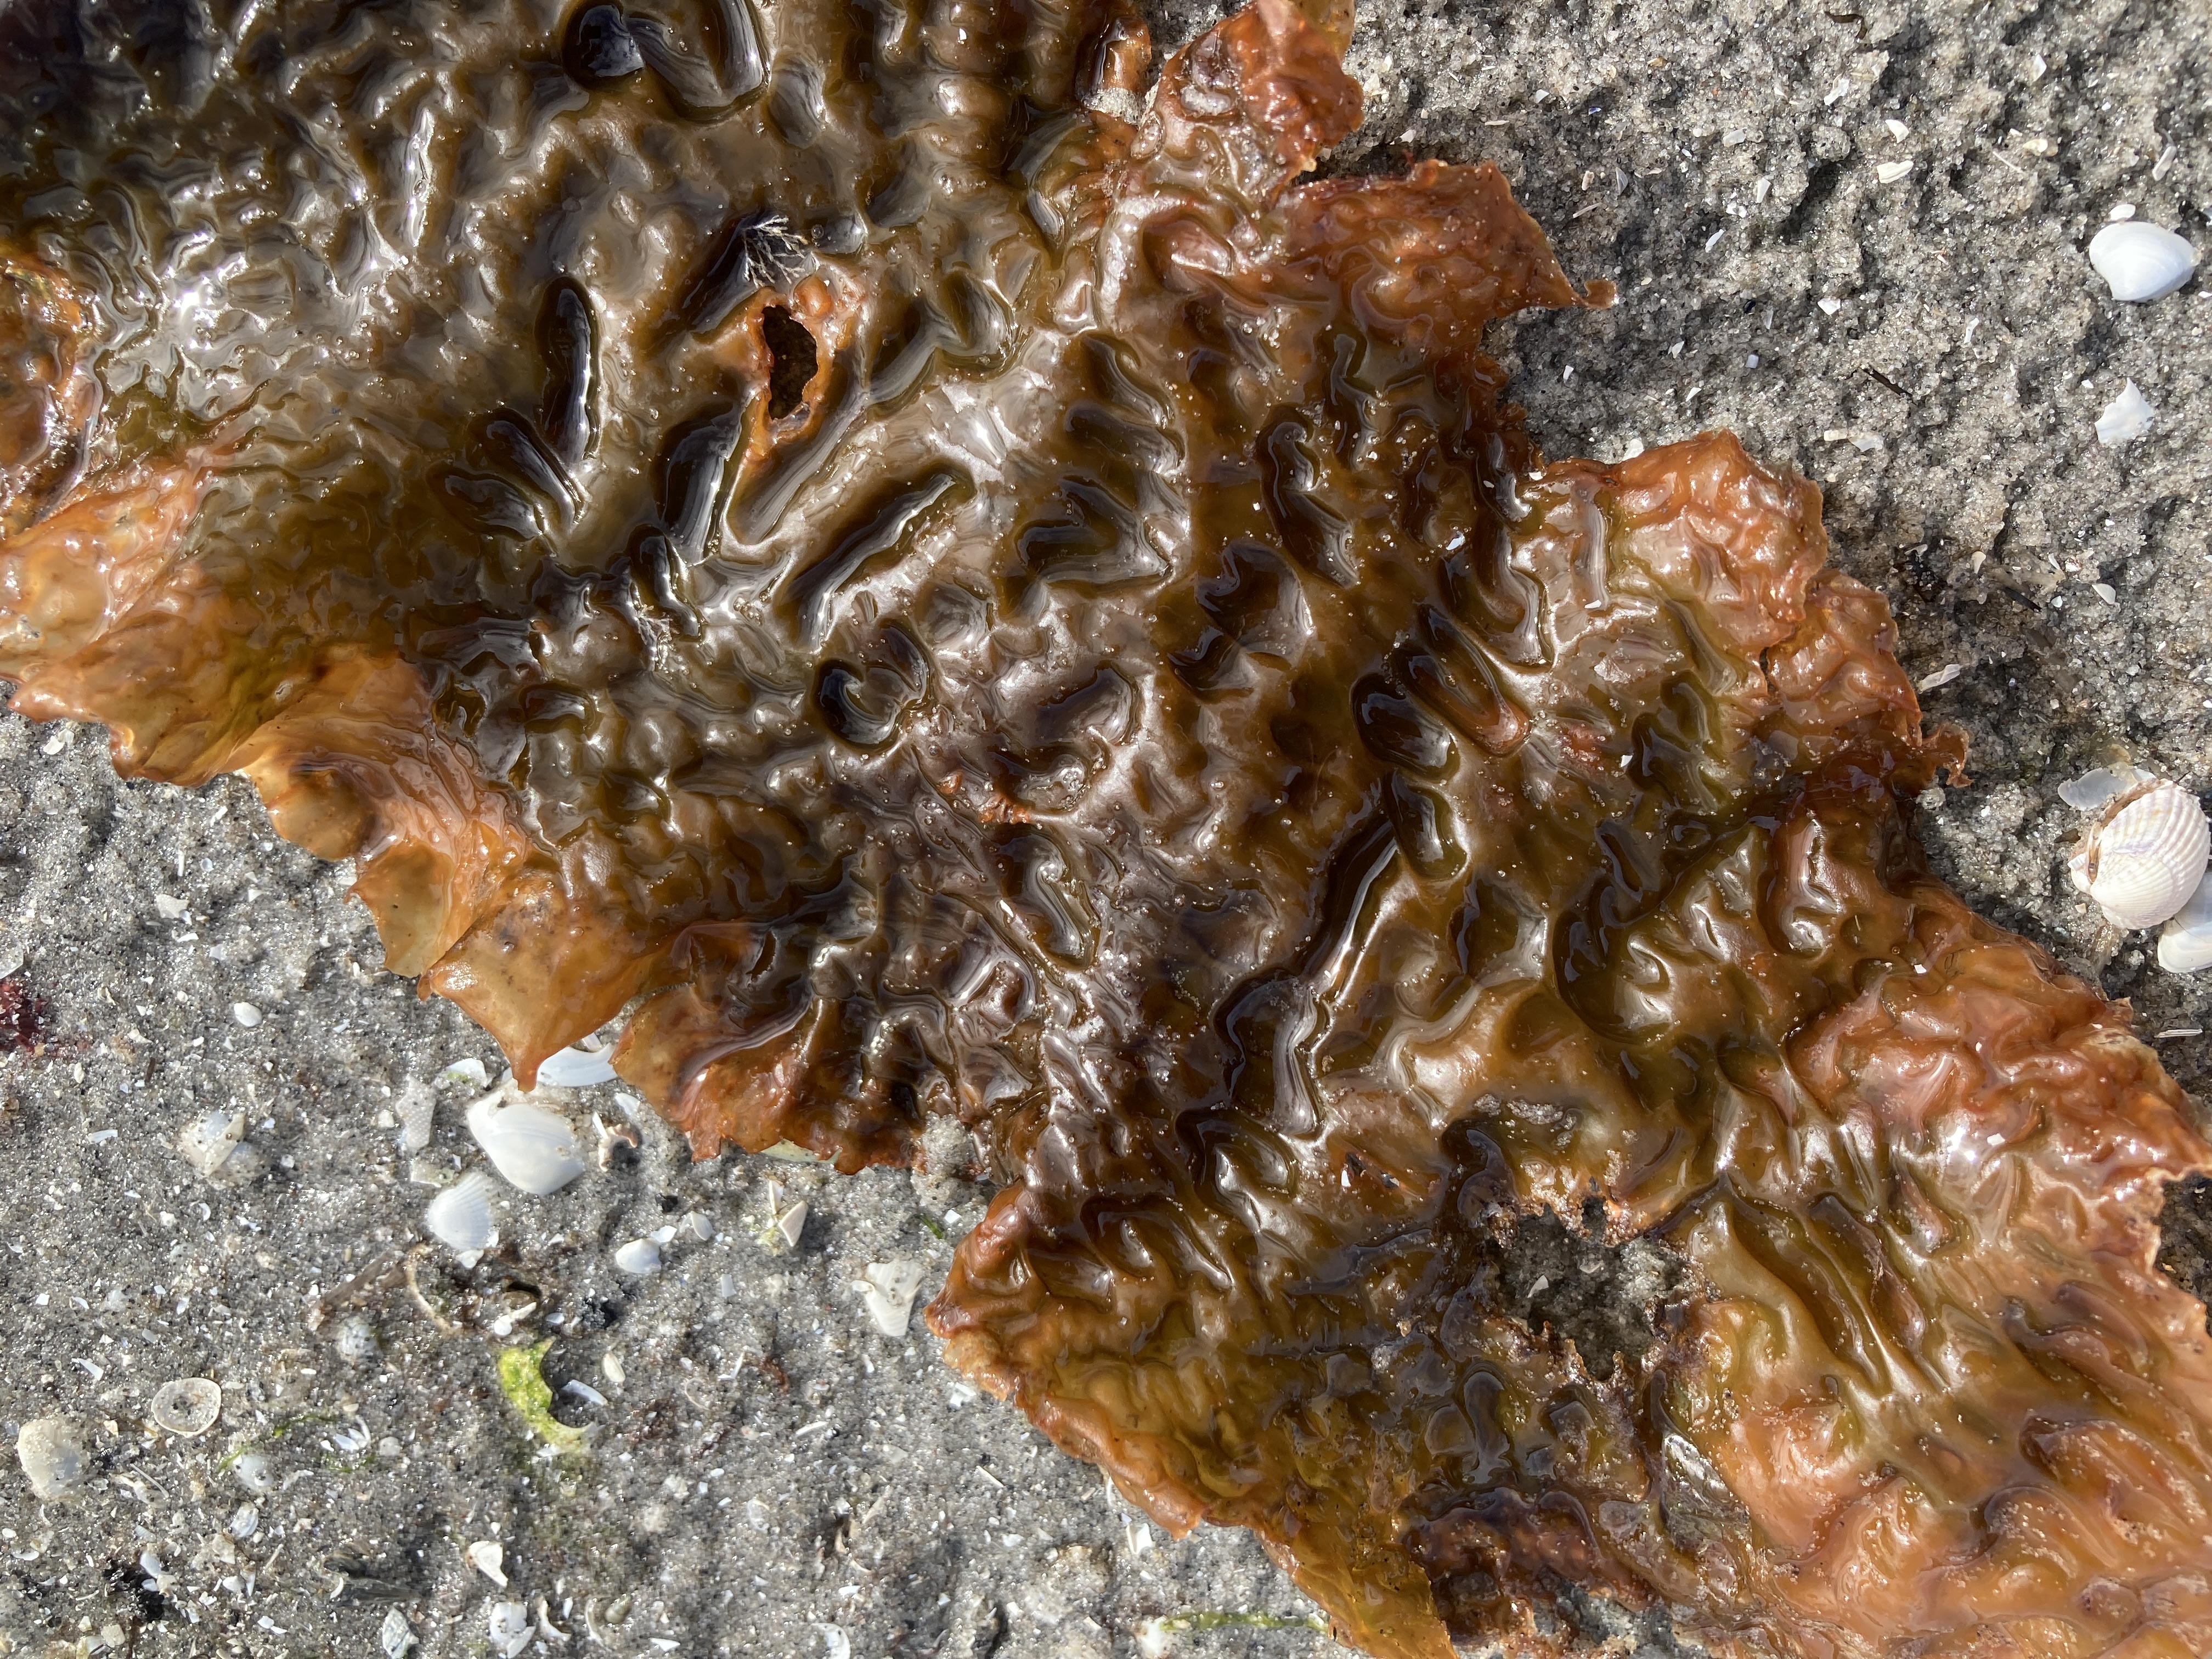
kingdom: Chromista
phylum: Ochrophyta
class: Phaeophyceae
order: Laminariales
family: Laminariaceae
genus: Saccharina
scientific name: Saccharina latissima
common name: Sukkertang
